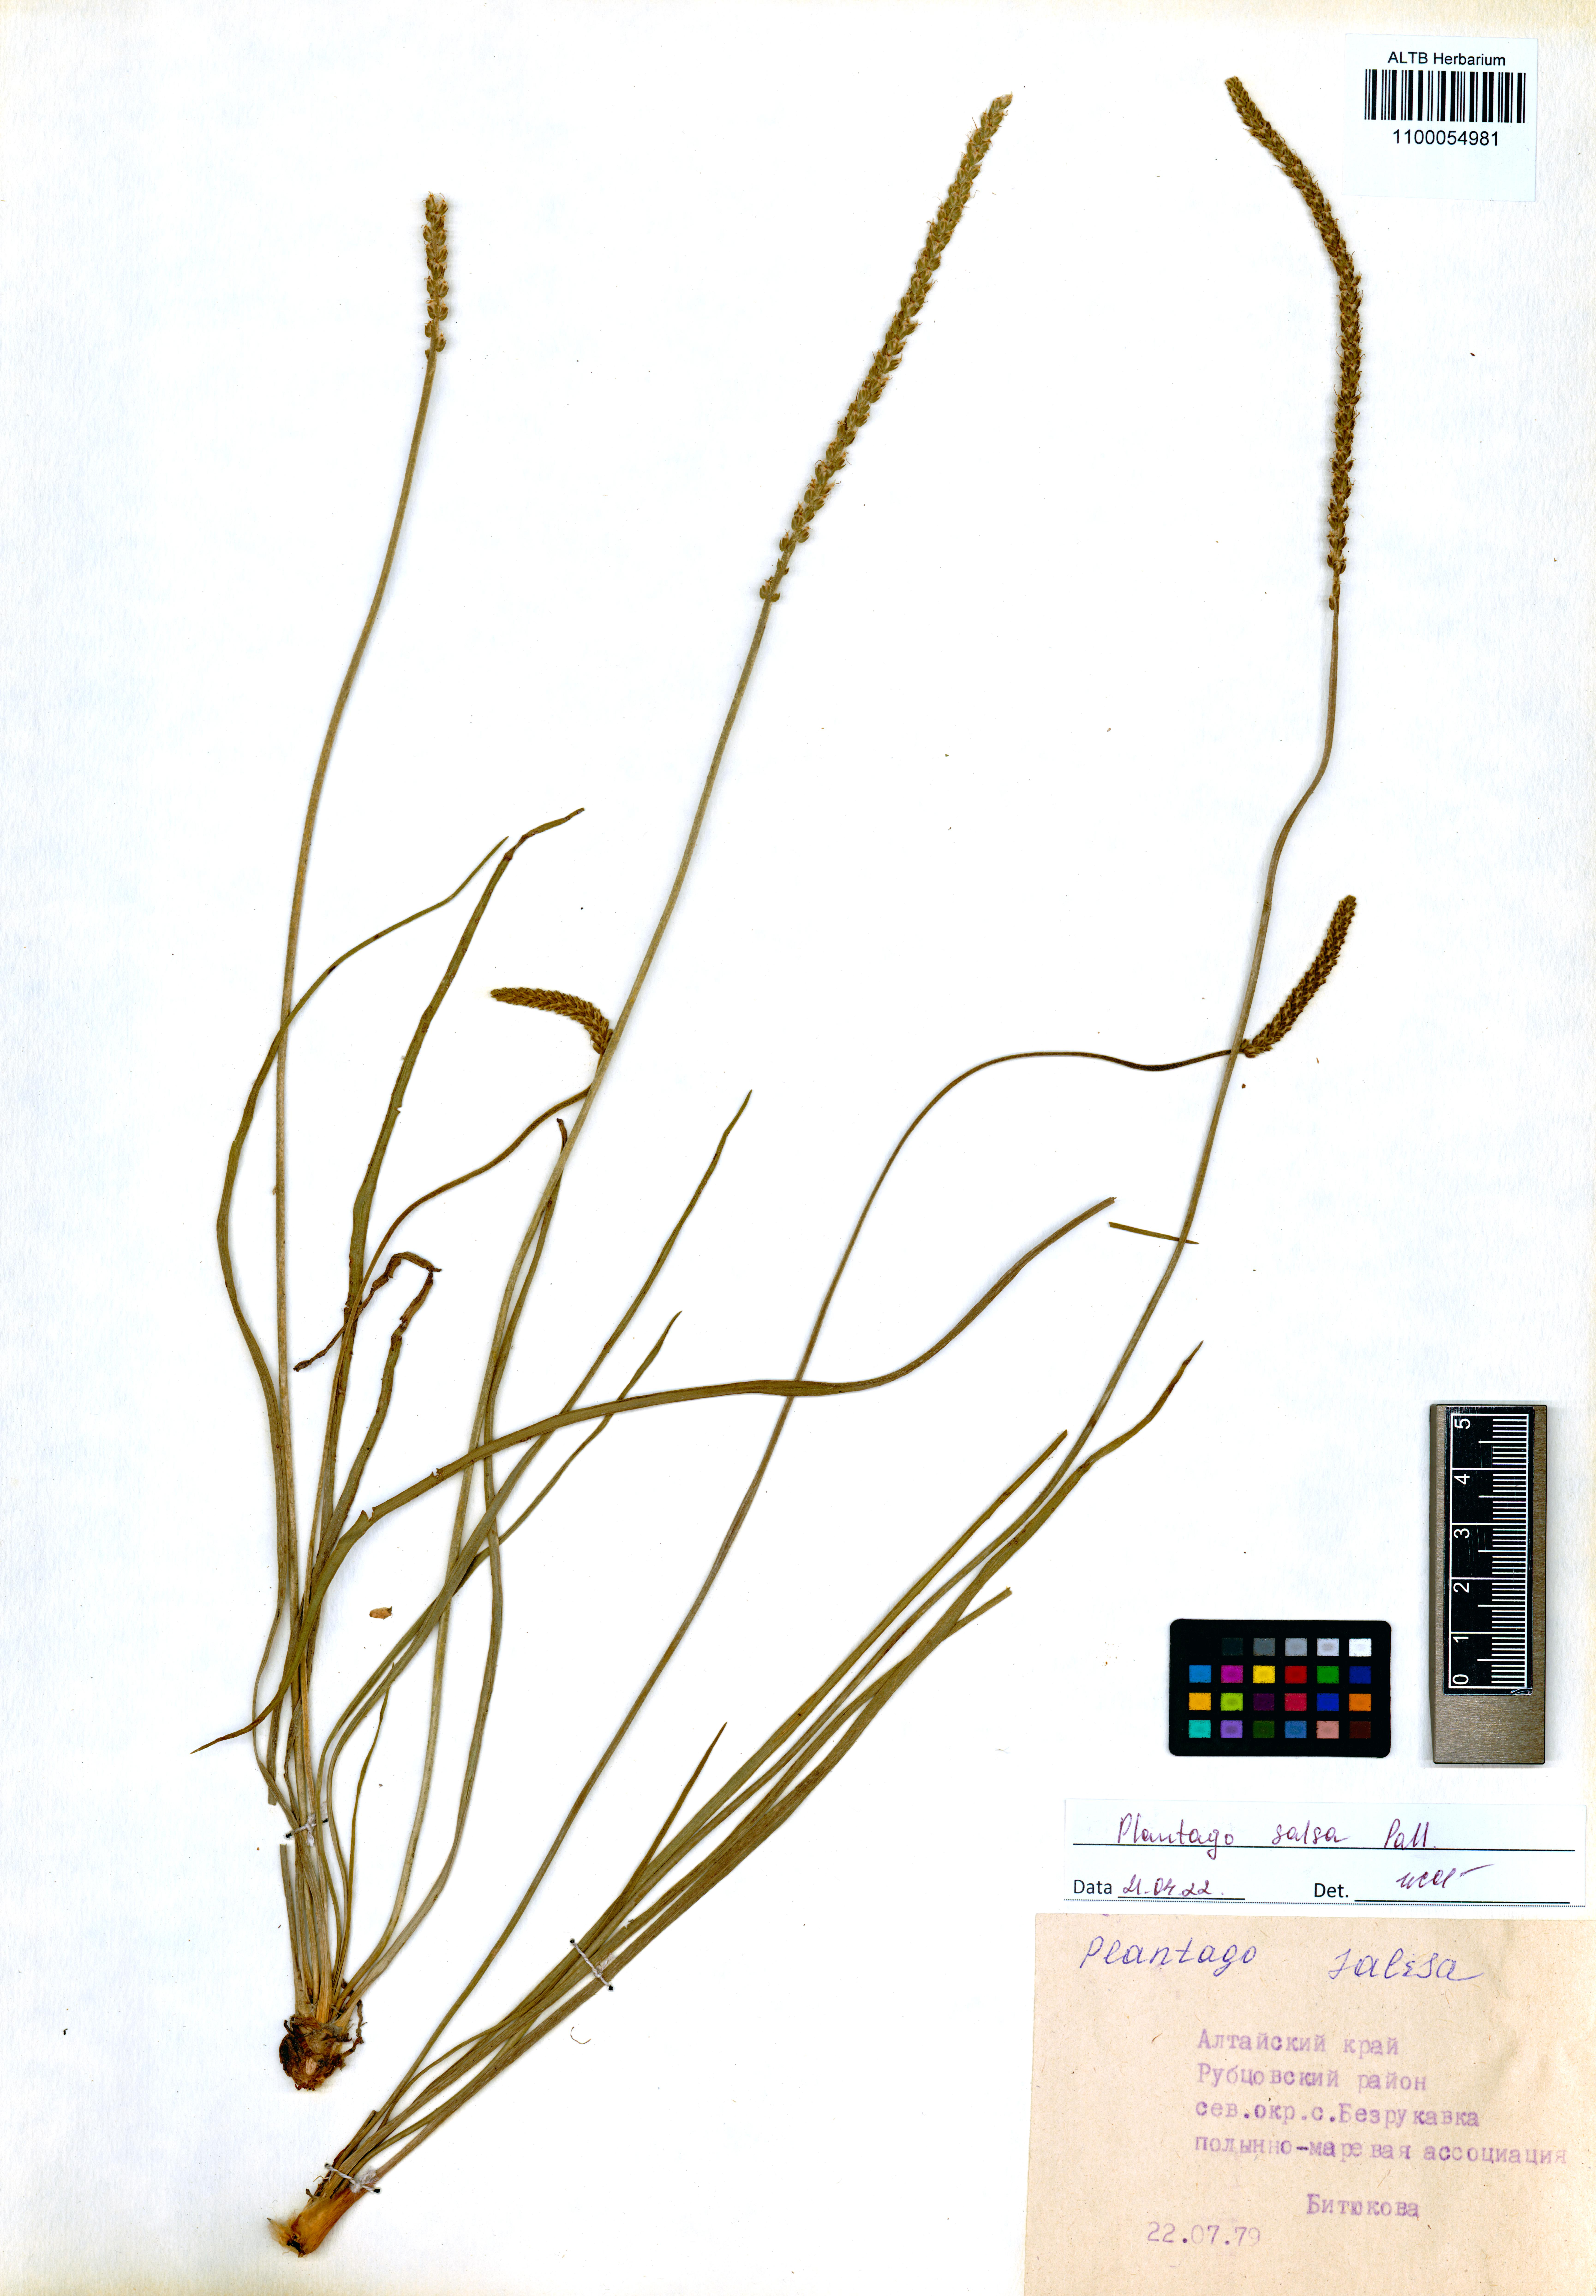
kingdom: Plantae
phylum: Tracheophyta
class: Magnoliopsida
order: Lamiales
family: Plantaginaceae
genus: Plantago
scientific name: Plantago salsa
